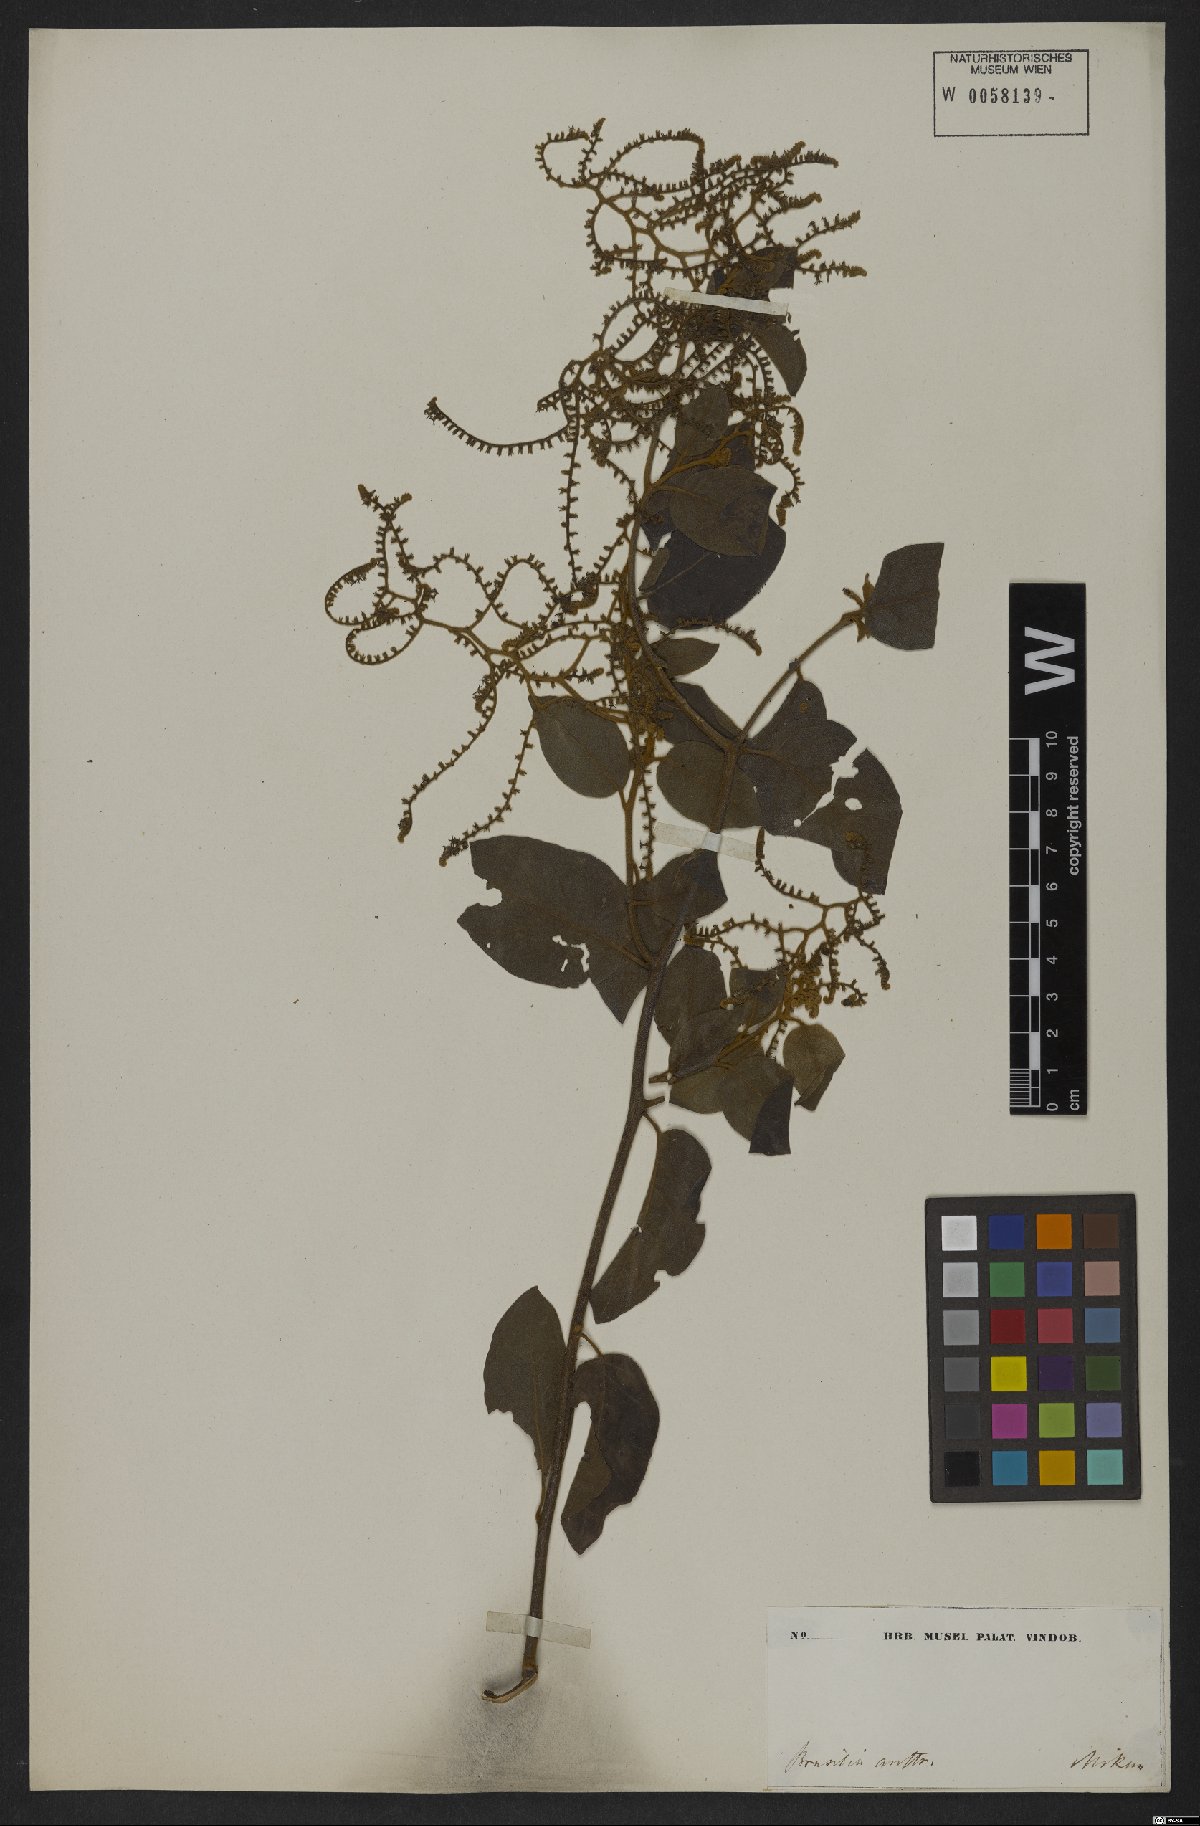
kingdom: Plantae
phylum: Tracheophyta
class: Magnoliopsida
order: Boraginales
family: Heliotropiaceae
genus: Myriopus
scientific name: Myriopus paniculatus
